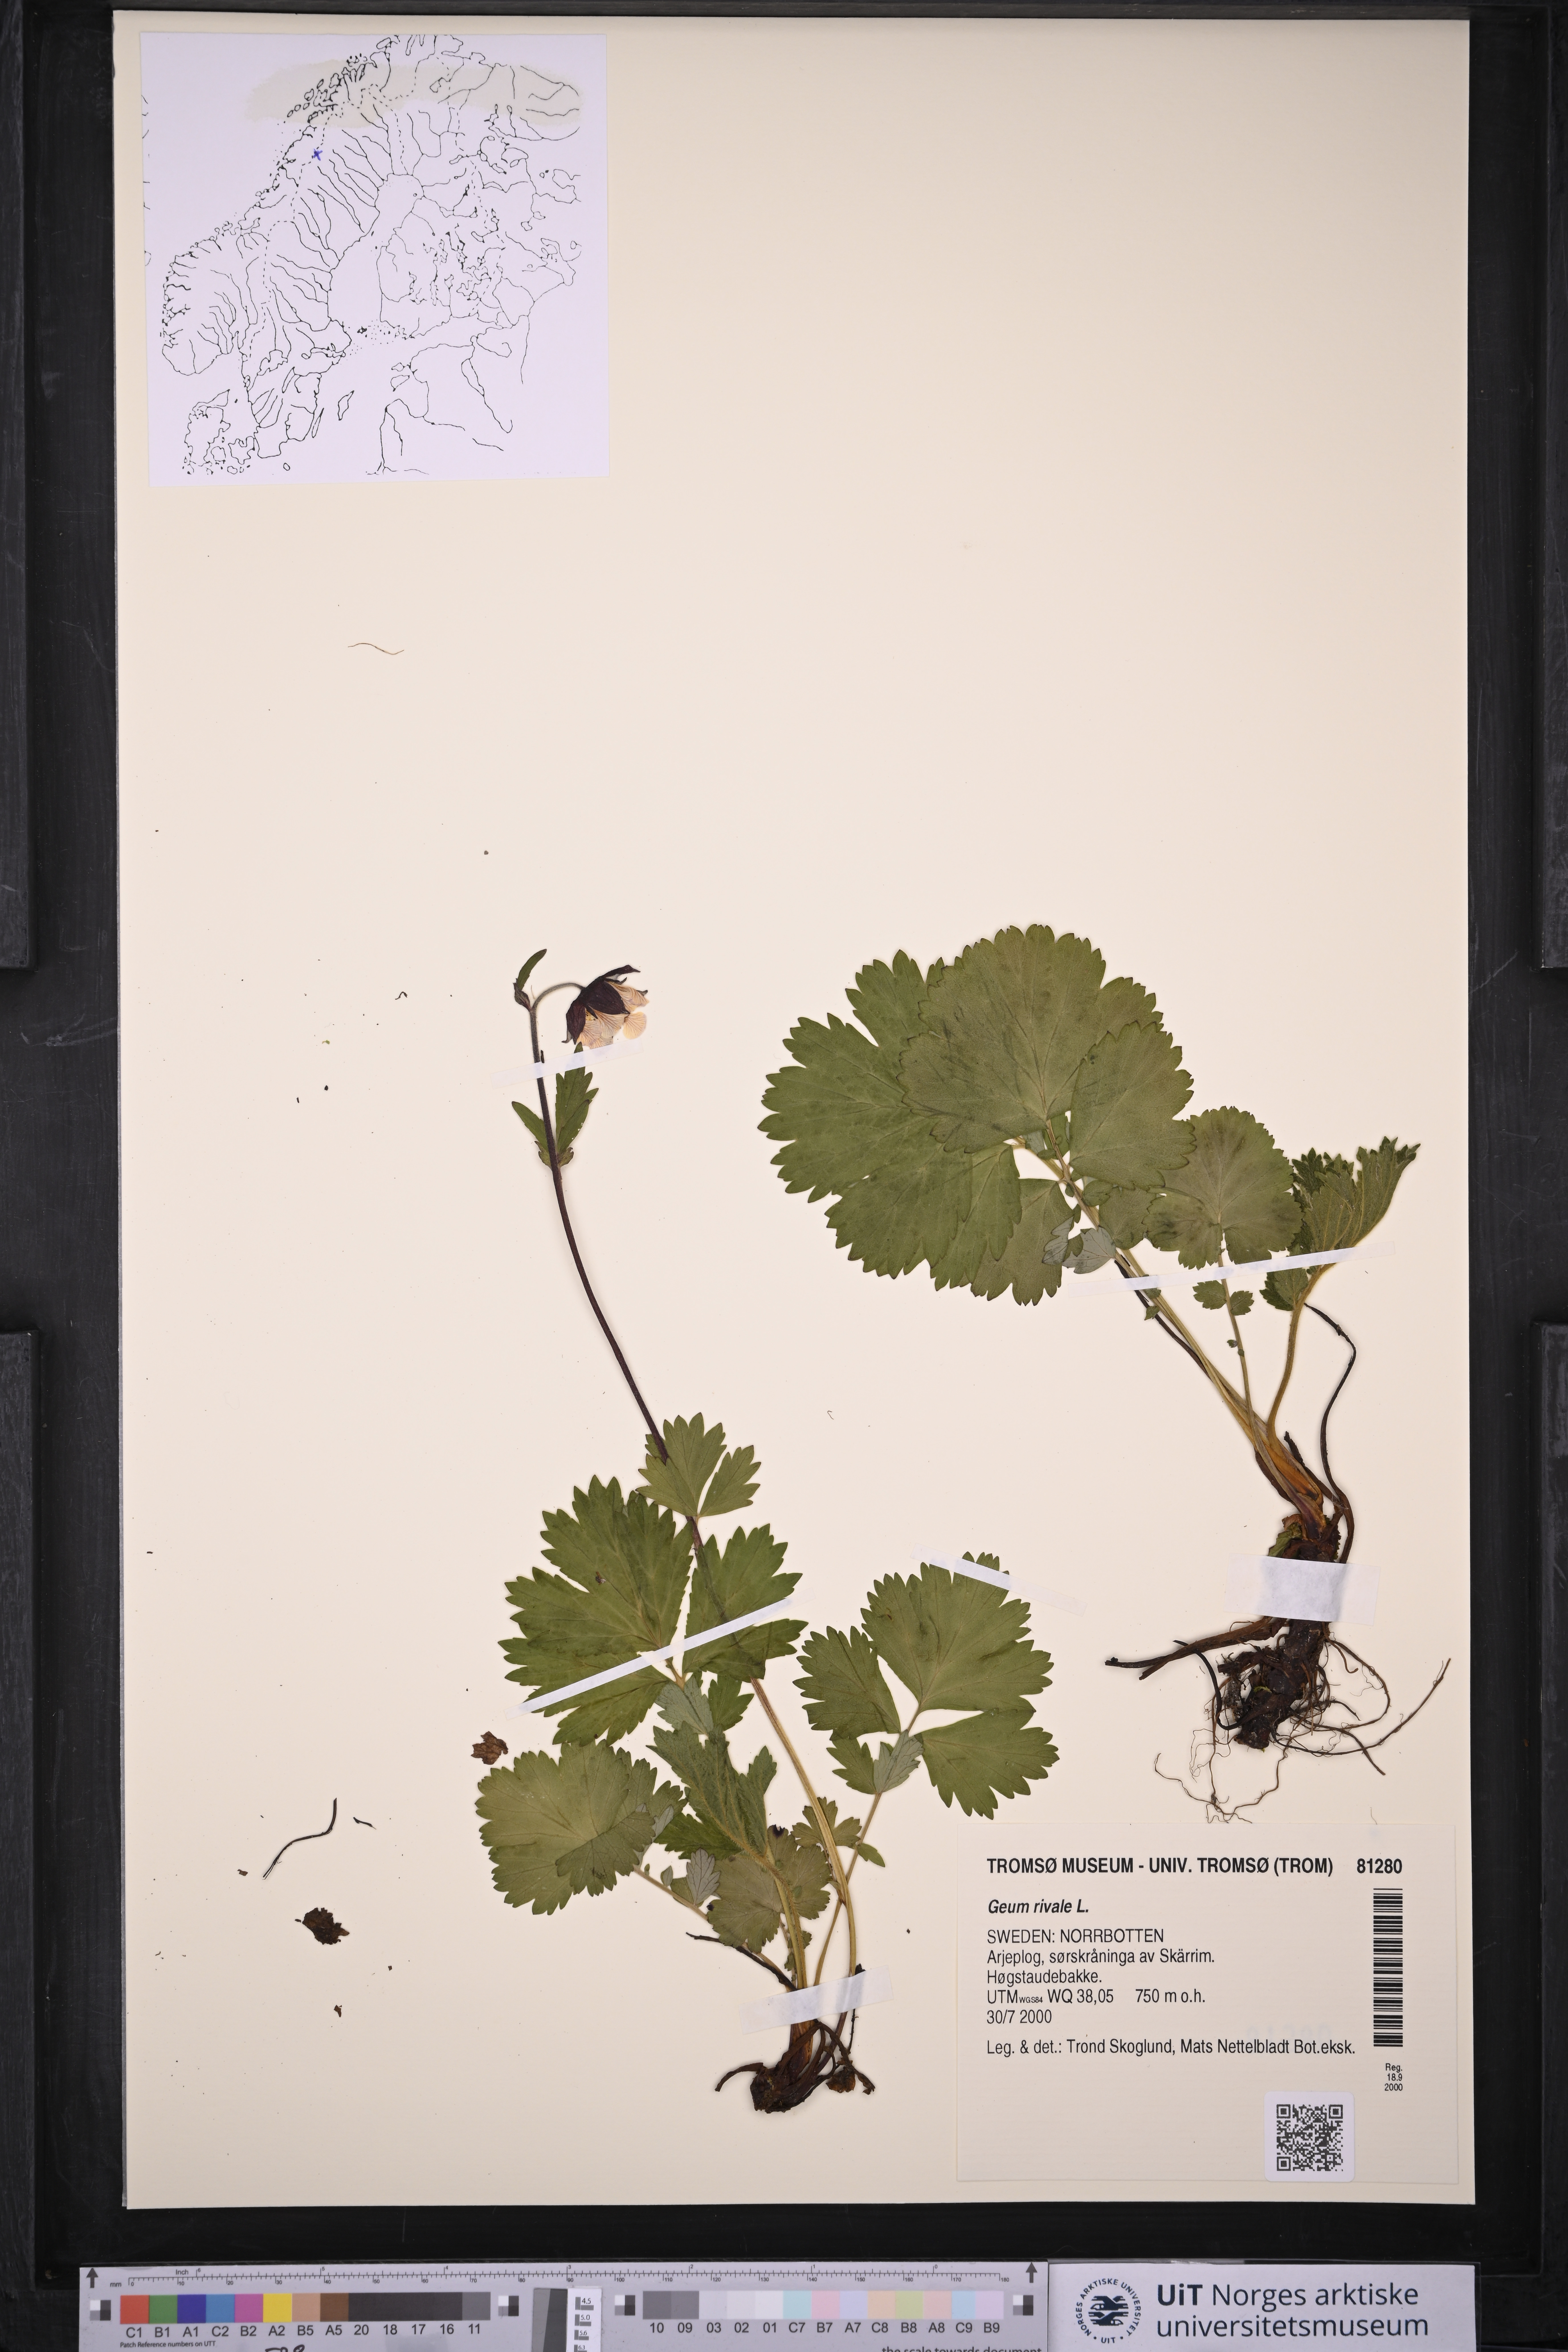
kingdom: Plantae
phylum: Tracheophyta
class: Magnoliopsida
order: Rosales
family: Rosaceae
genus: Geum
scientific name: Geum rivale
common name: Water avens
